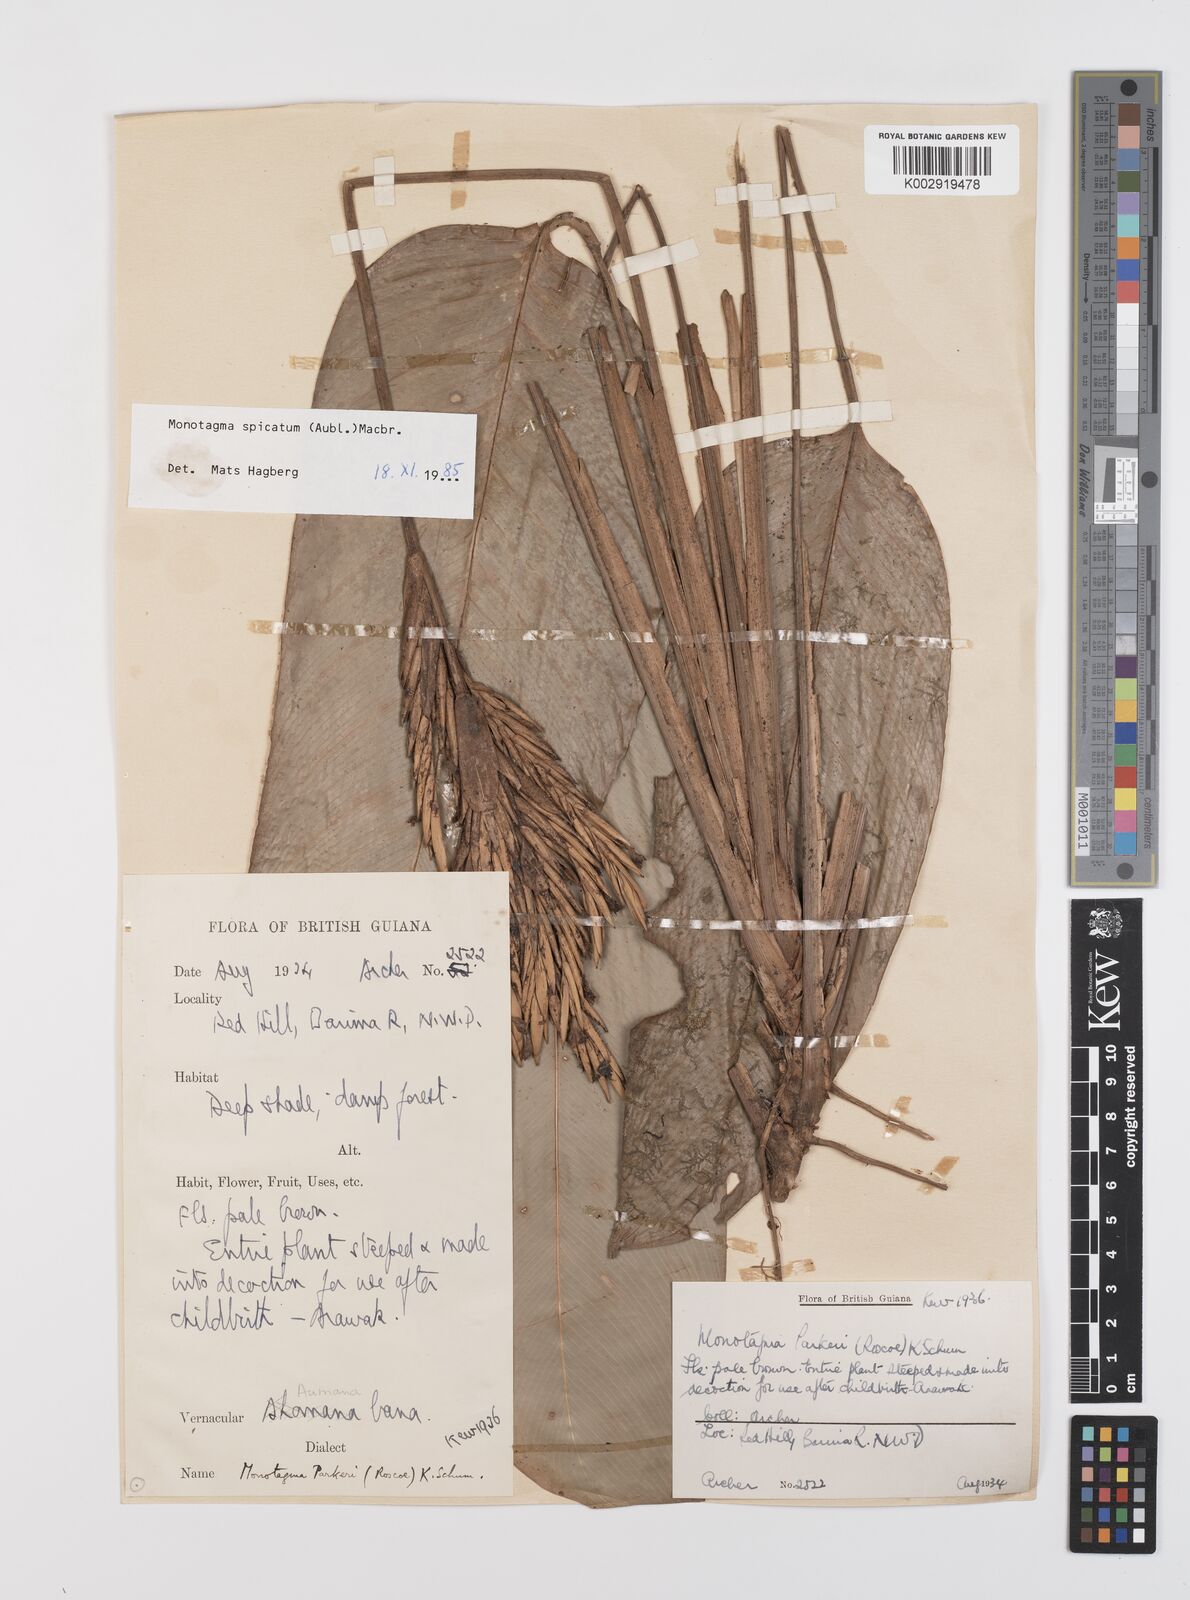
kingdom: Plantae
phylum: Tracheophyta
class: Liliopsida
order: Zingiberales
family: Marantaceae
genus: Monotagma
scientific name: Monotagma spicatum
